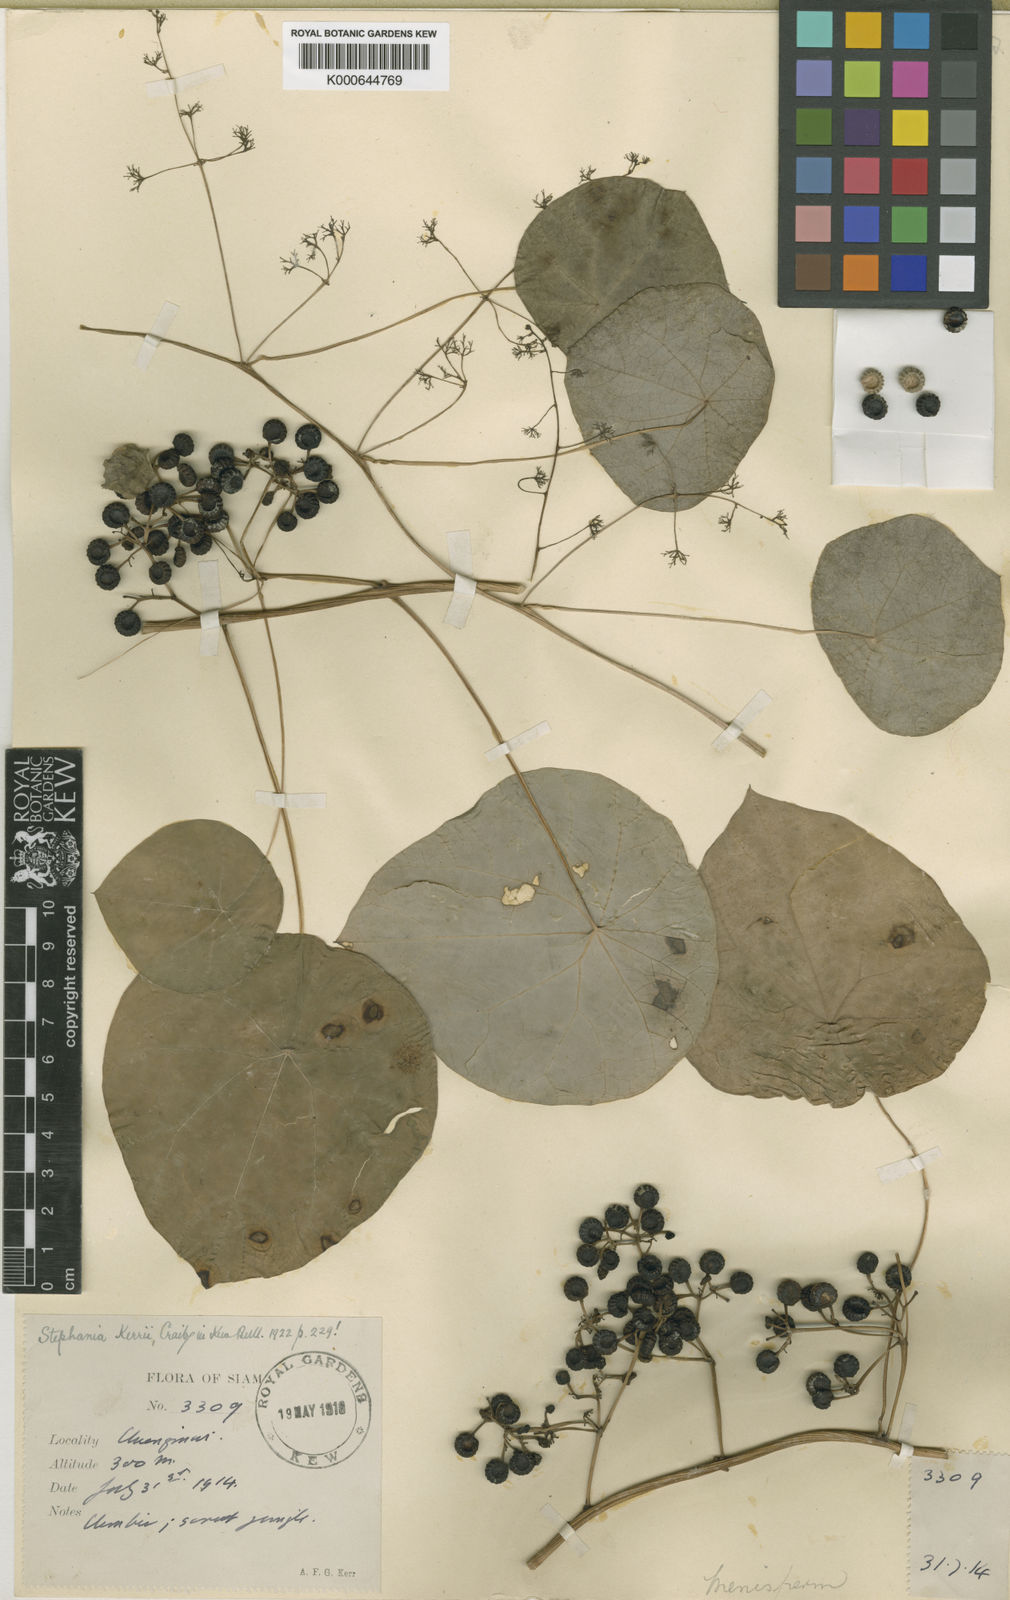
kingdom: Plantae
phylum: Tracheophyta
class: Magnoliopsida
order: Ranunculales
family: Menispermaceae
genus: Stephania
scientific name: Stephania oblata
